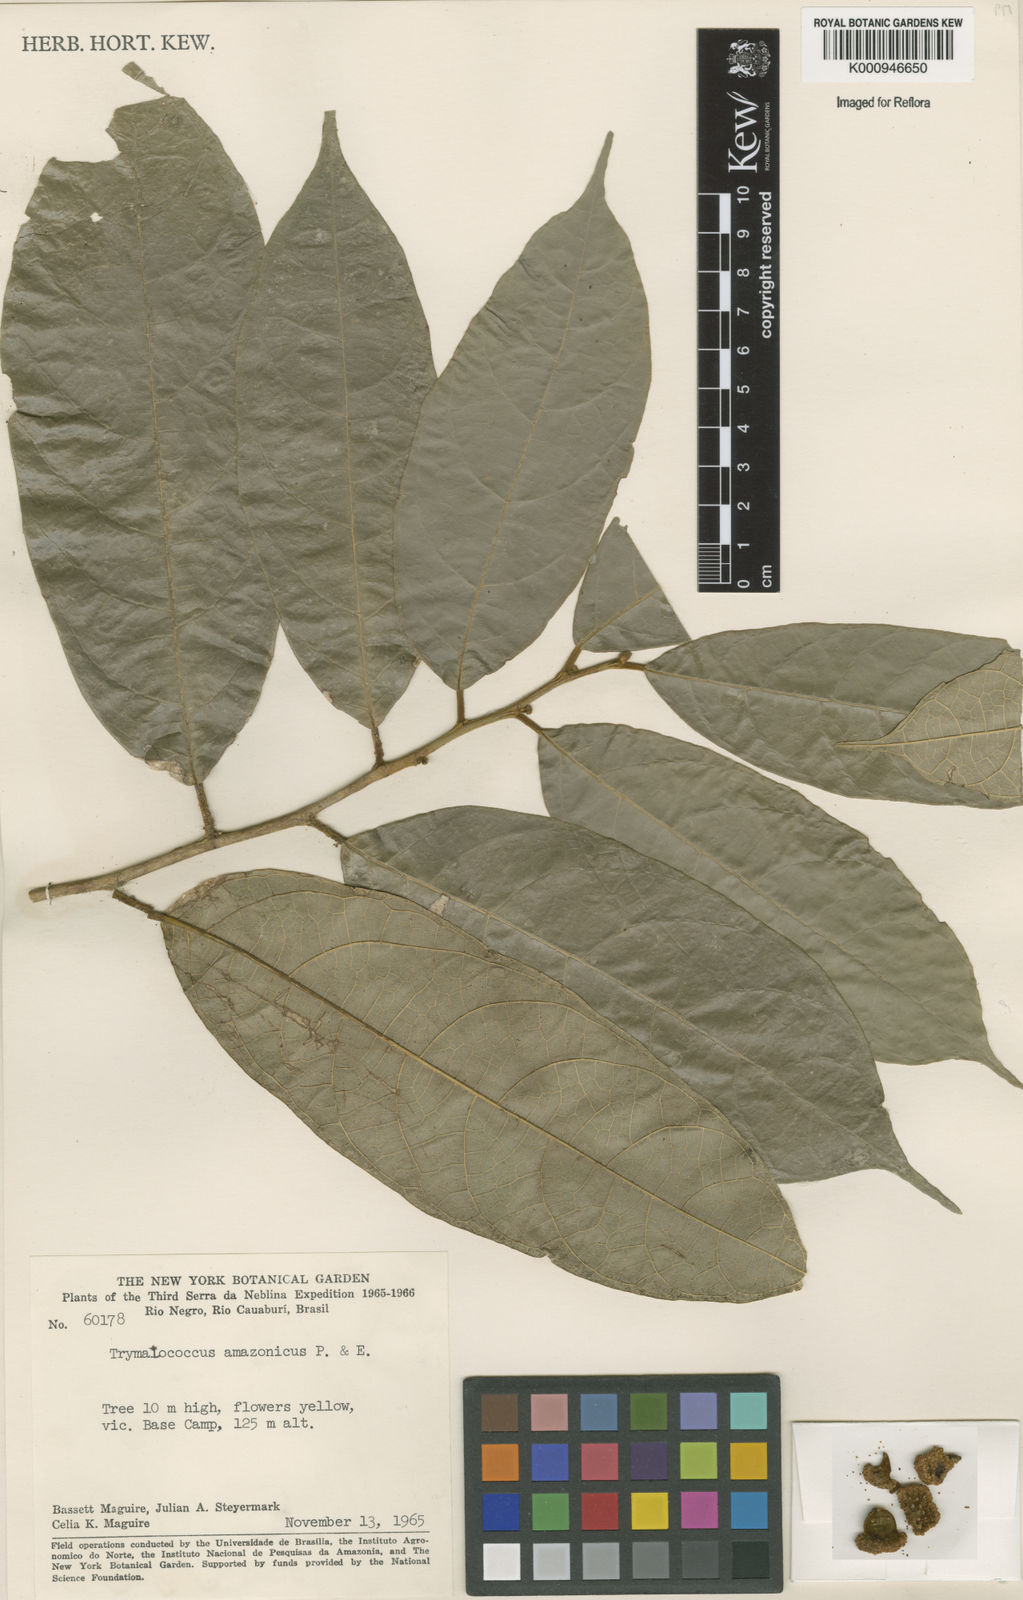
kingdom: Plantae
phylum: Tracheophyta
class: Magnoliopsida
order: Rosales
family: Moraceae
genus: Brosimum
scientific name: Brosimum amazonicum
